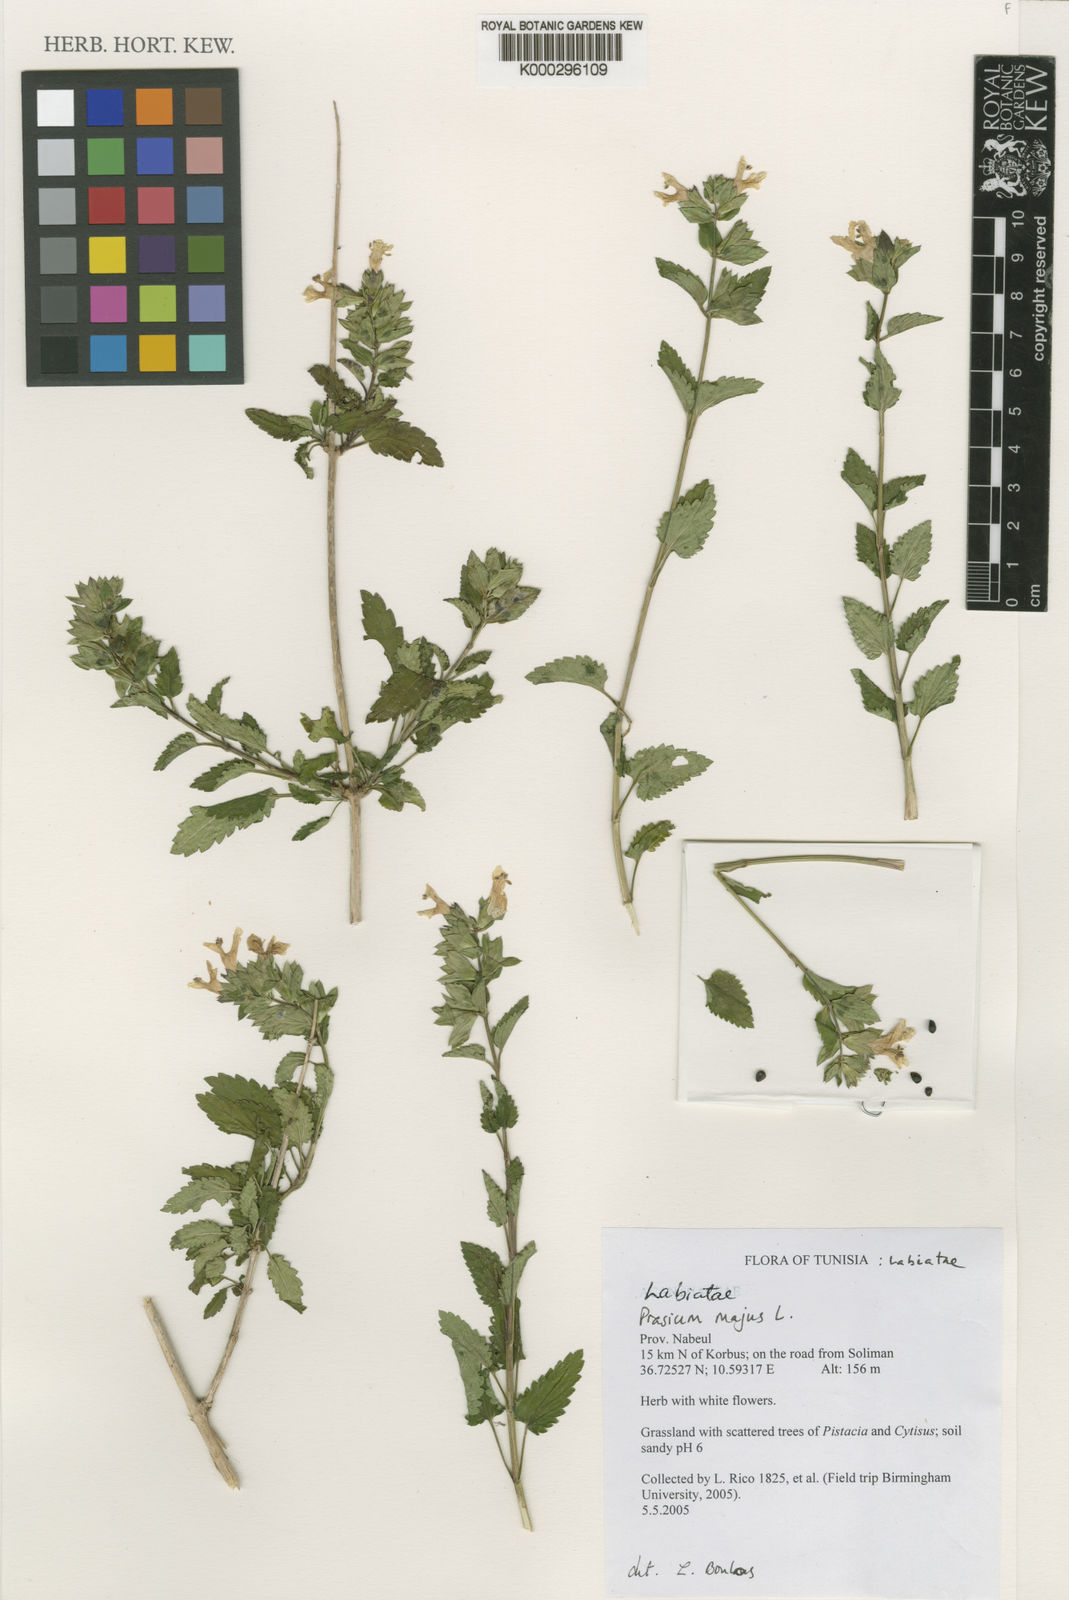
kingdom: Plantae
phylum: Tracheophyta
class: Magnoliopsida
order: Lamiales
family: Lamiaceae
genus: Prasium
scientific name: Prasium majus
